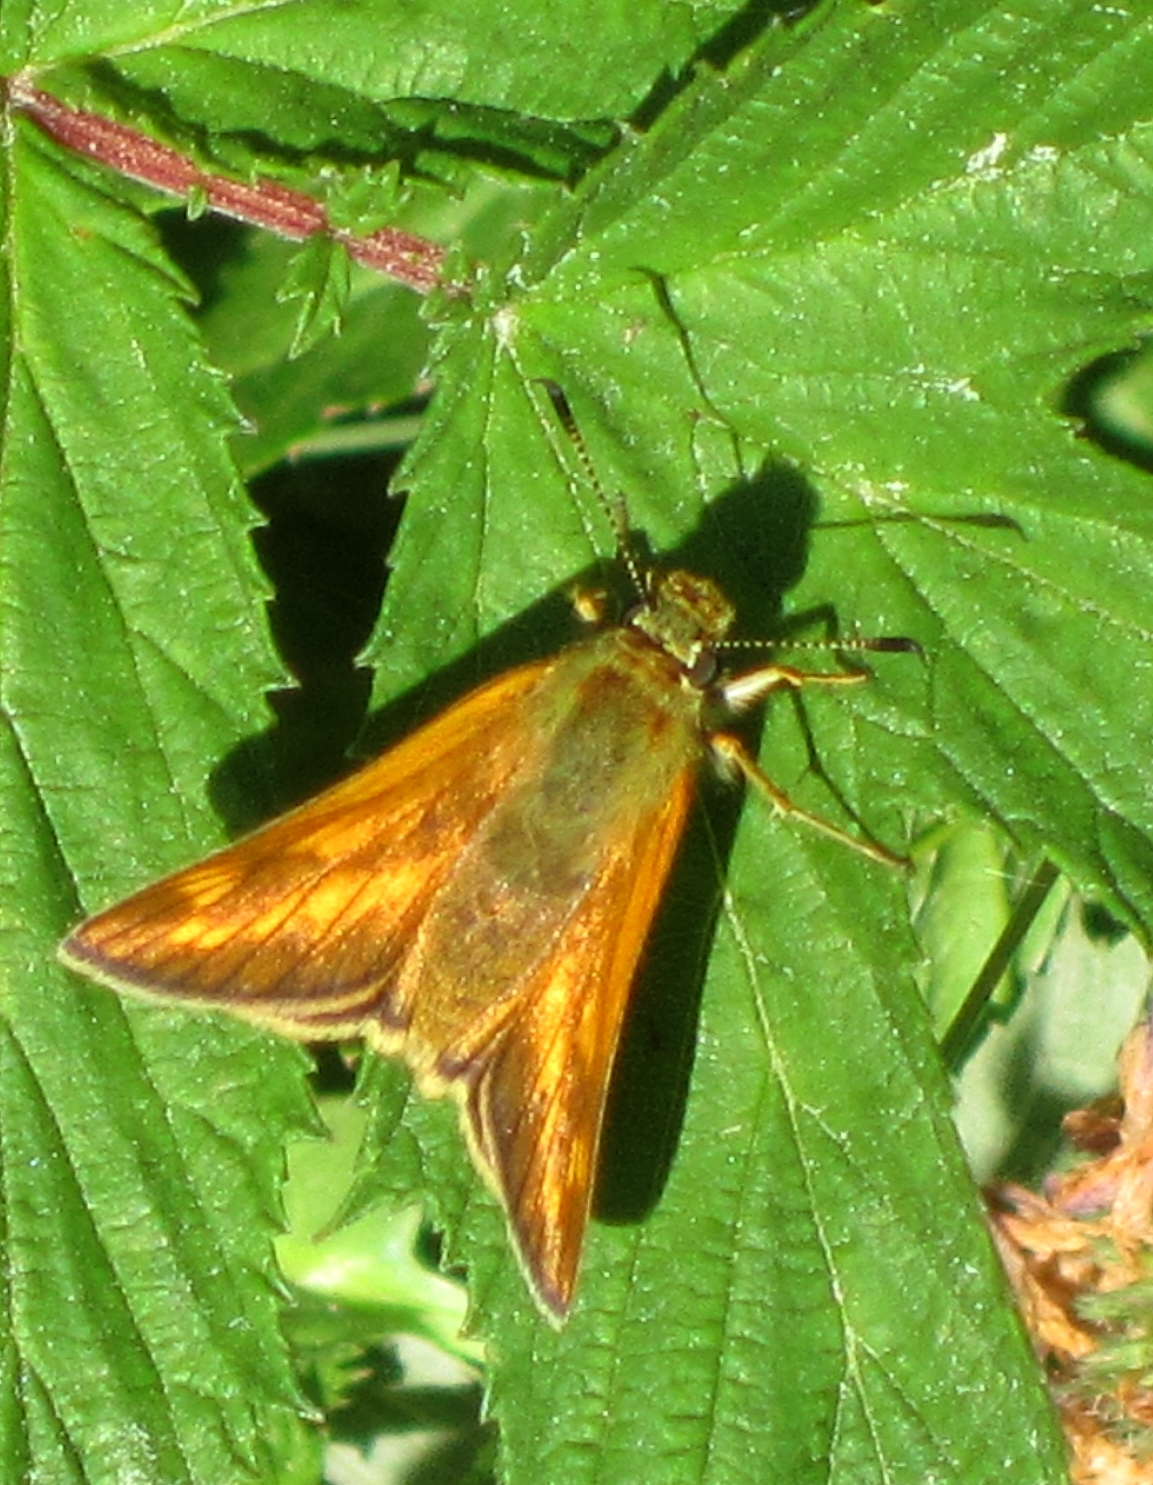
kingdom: Animalia
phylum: Arthropoda
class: Insecta
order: Lepidoptera
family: Hesperiidae
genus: Ochlodes
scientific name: Ochlodes venata
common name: Large skipper
